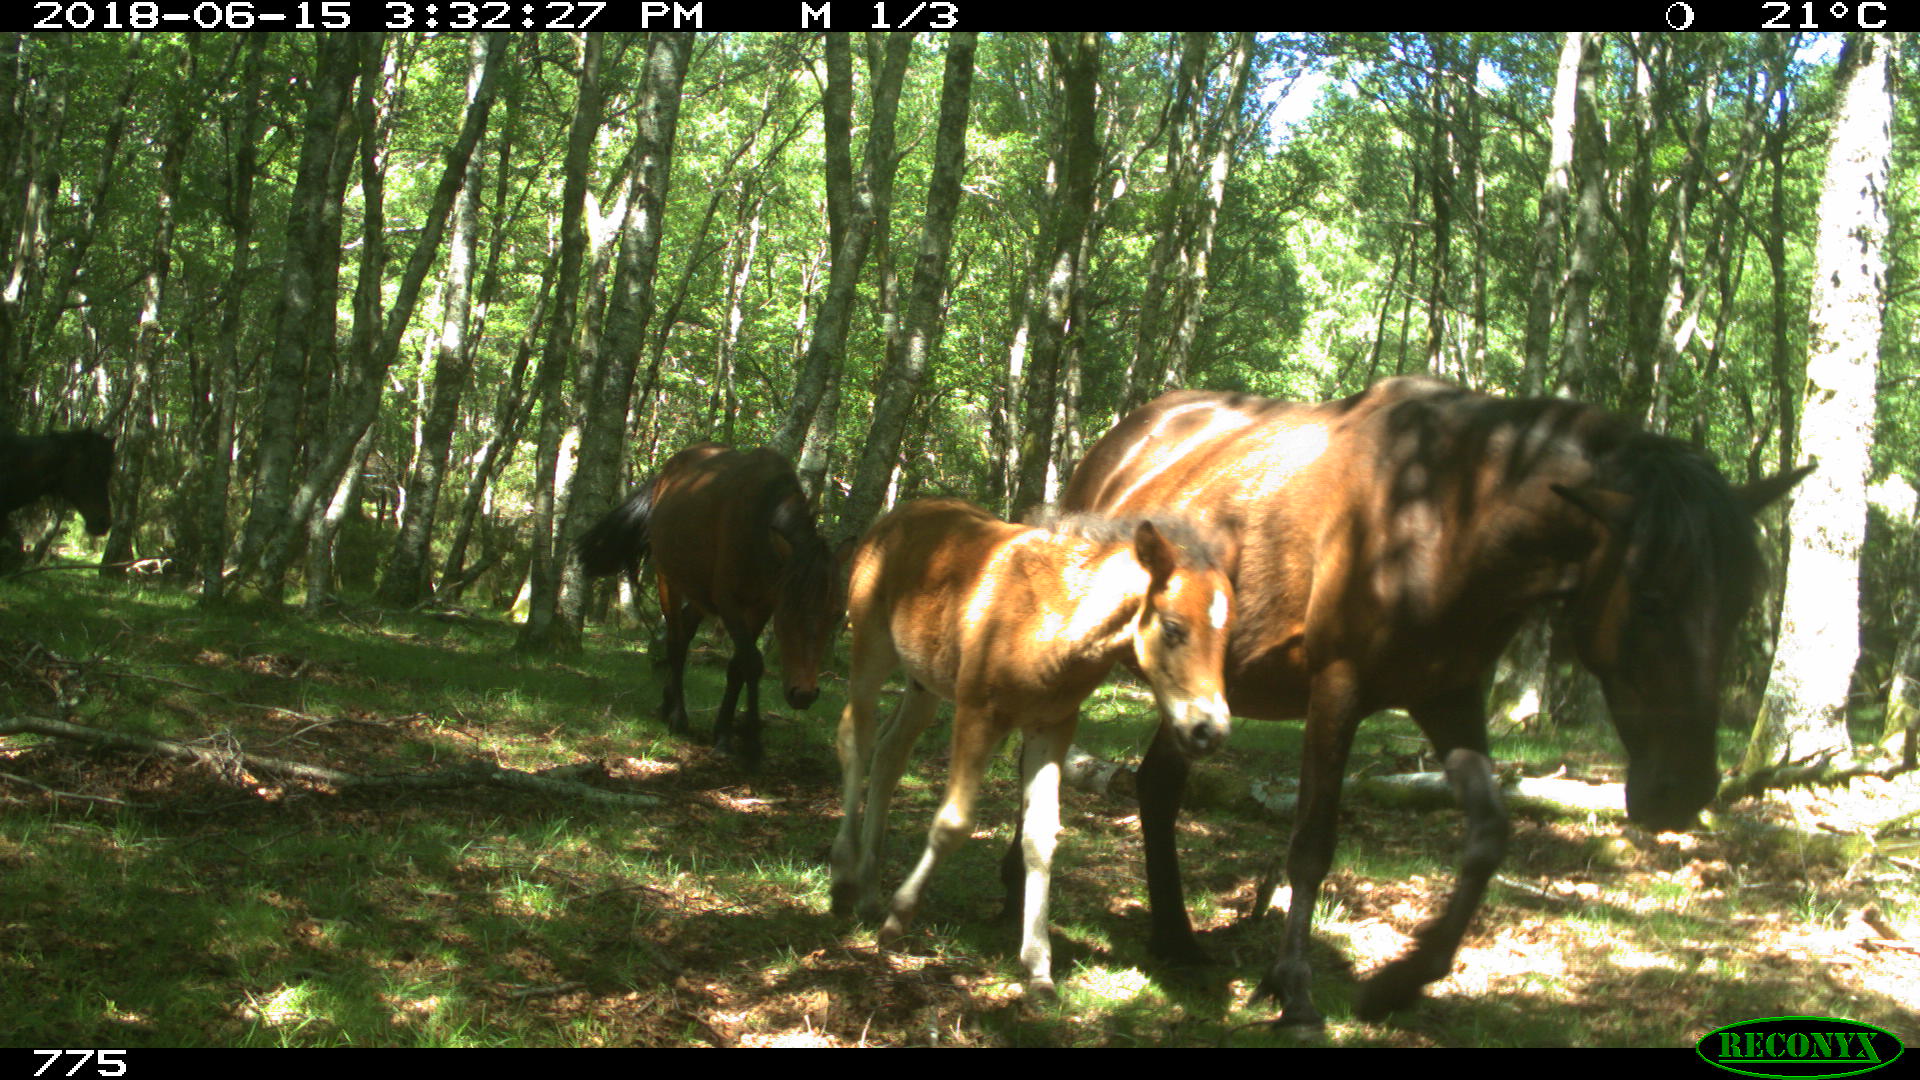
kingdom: Animalia
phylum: Chordata
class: Mammalia
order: Perissodactyla
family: Equidae
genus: Equus
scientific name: Equus caballus
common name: Horse
